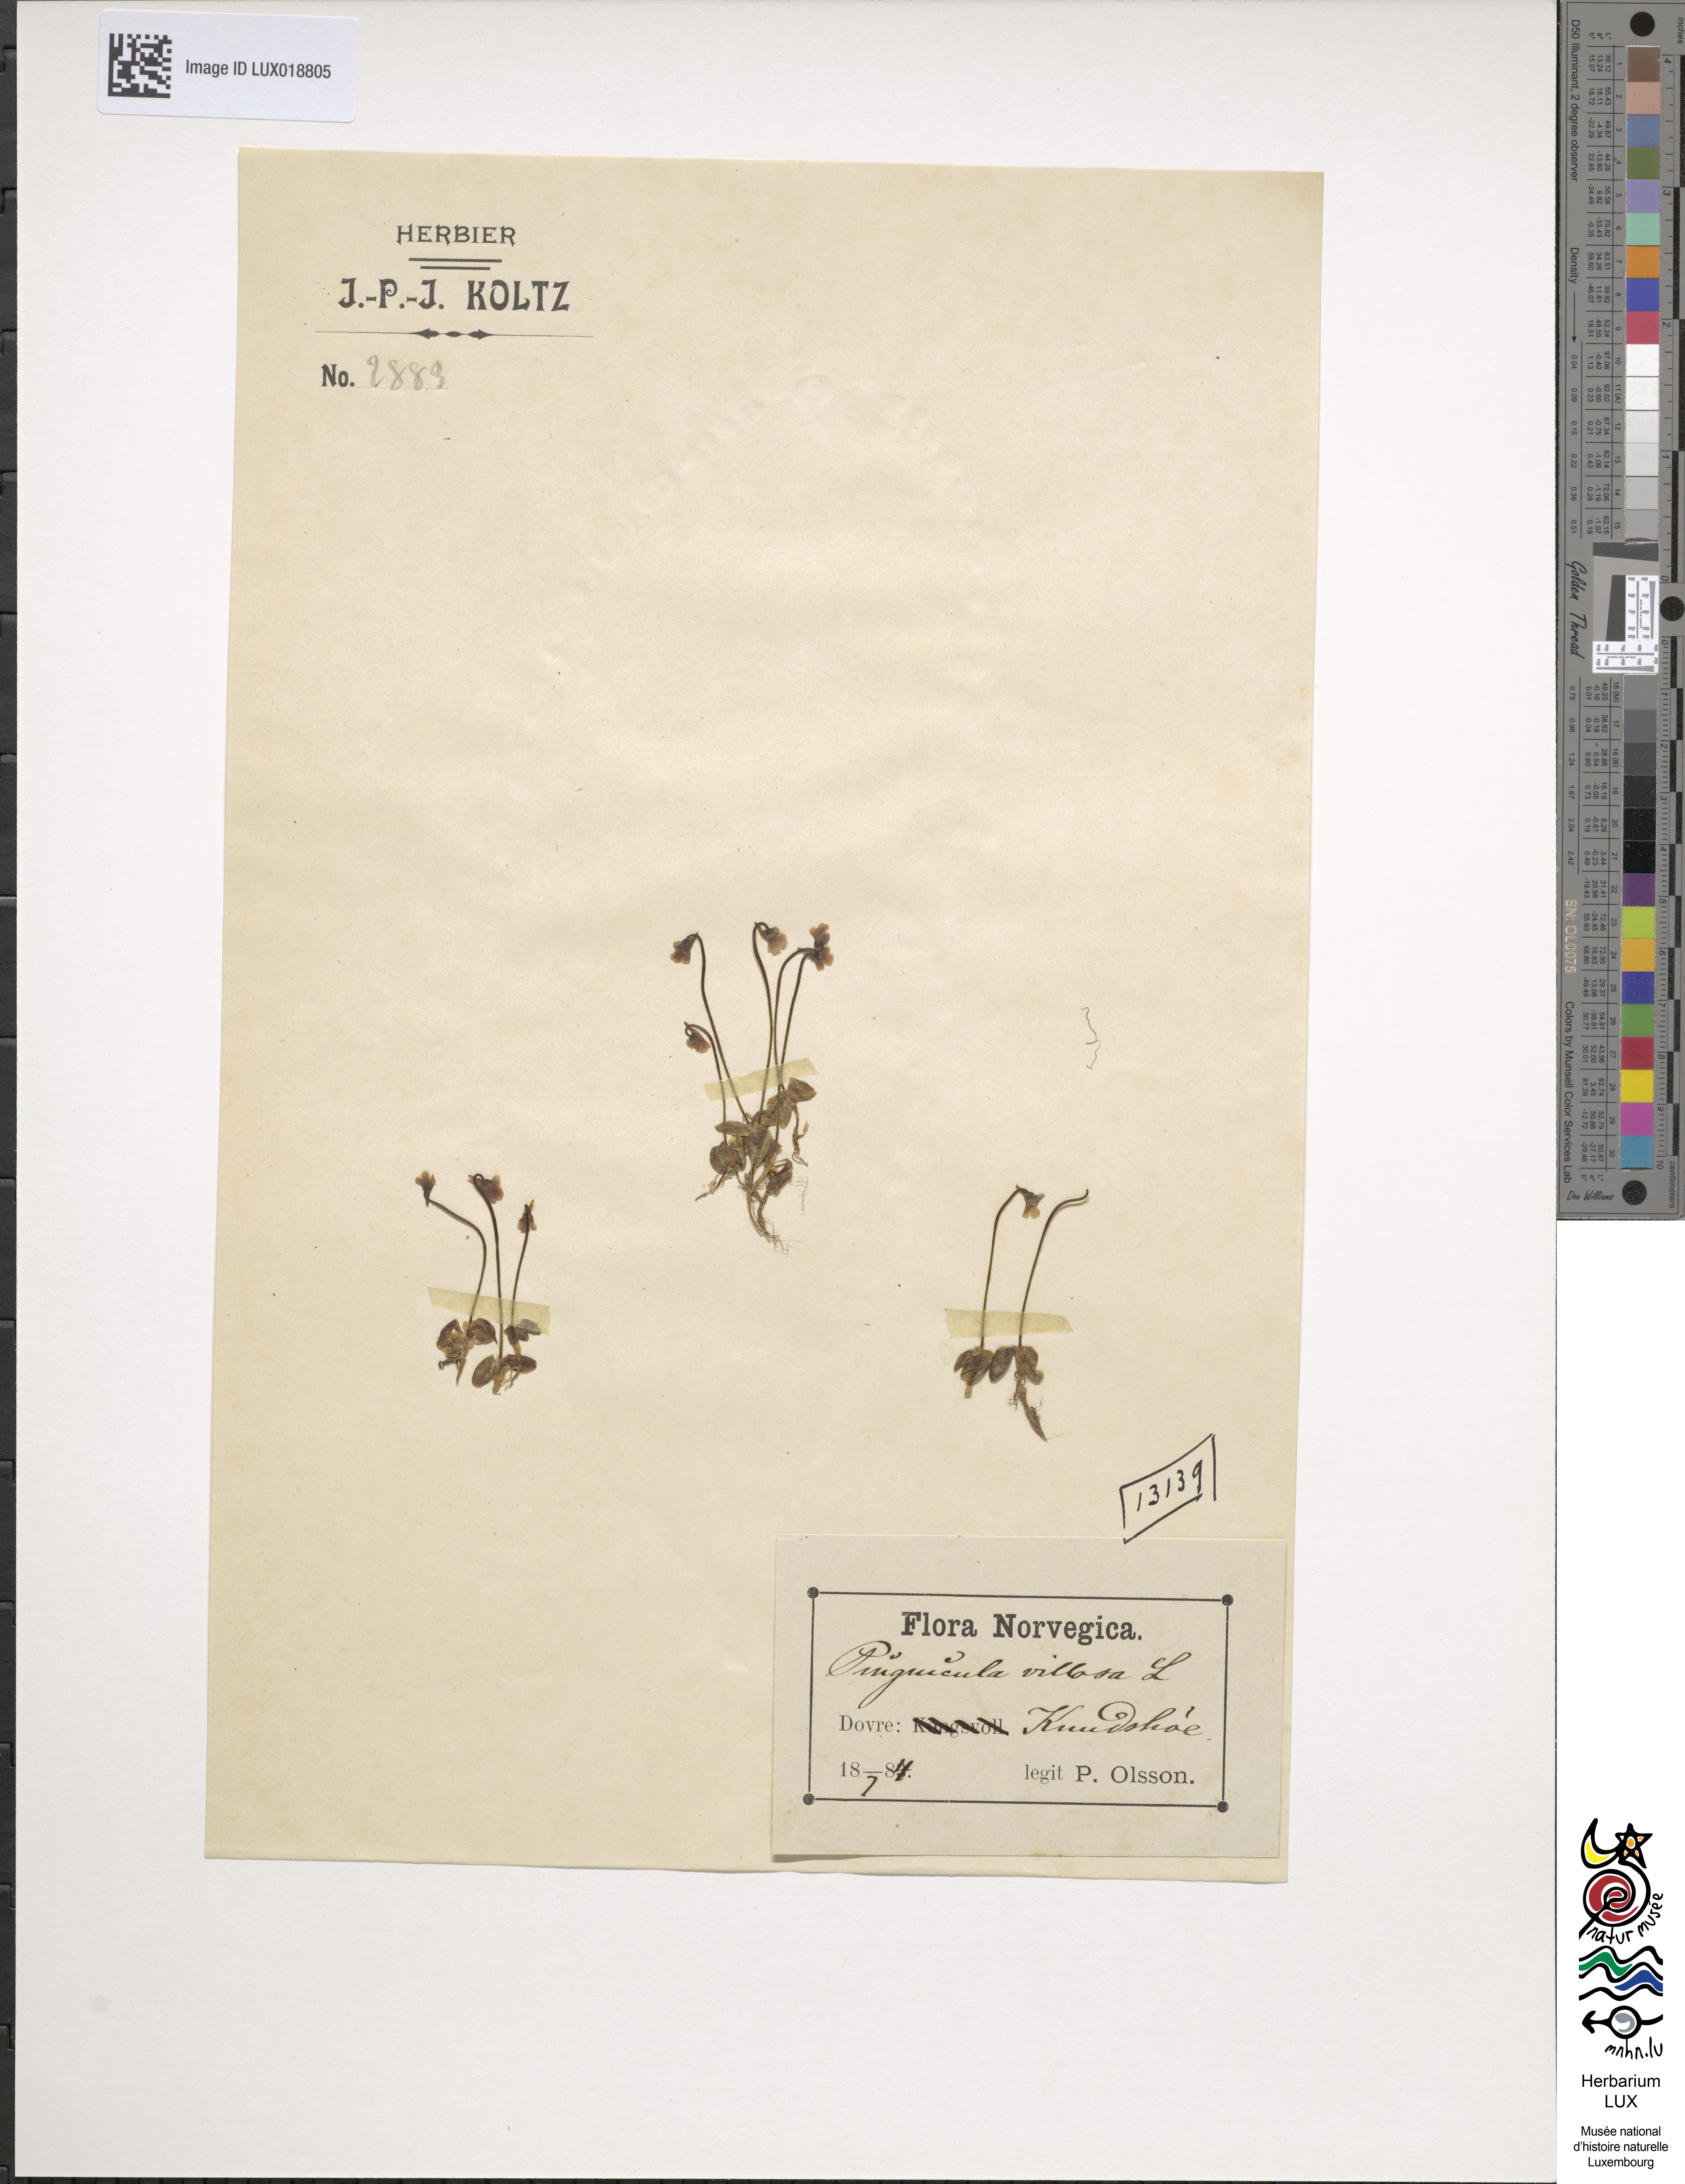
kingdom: Plantae
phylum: Tracheophyta
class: Magnoliopsida
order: Lamiales
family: Lentibulariaceae
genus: Pinguicula
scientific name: Pinguicula villosa
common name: Hairy butterwort
